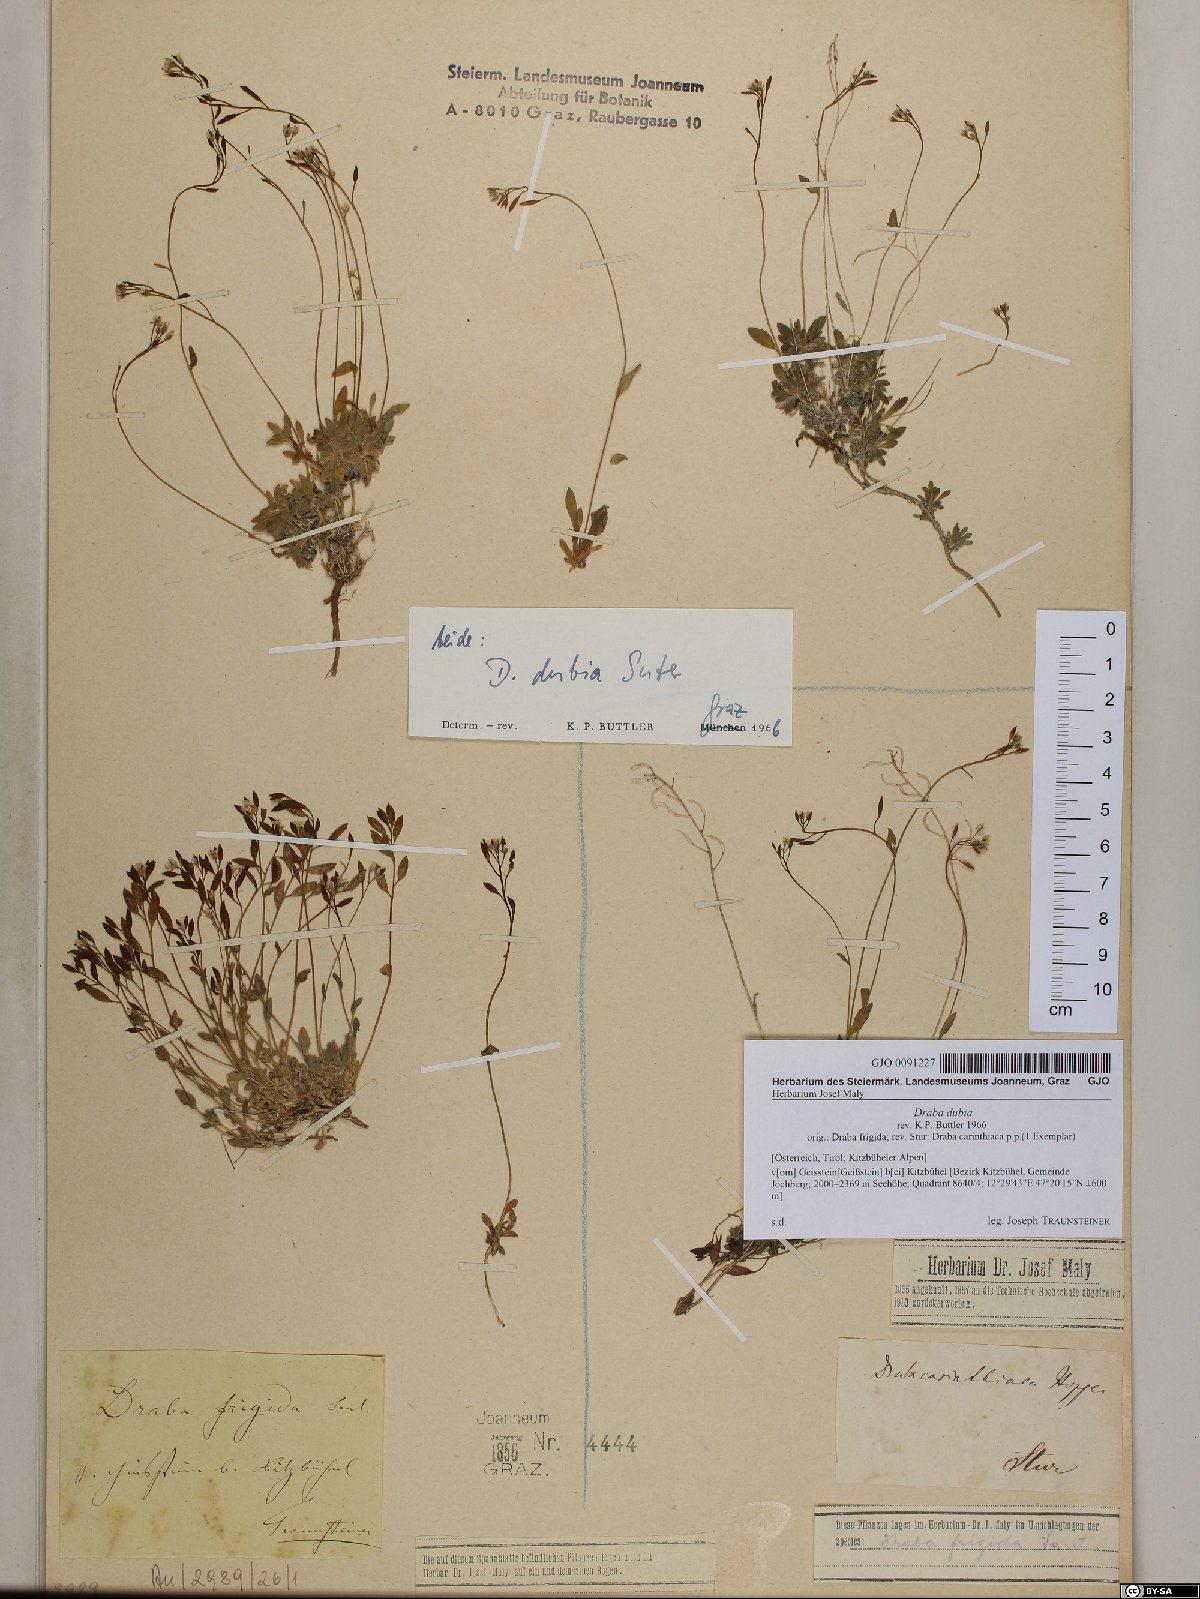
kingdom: Plantae
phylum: Tracheophyta
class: Magnoliopsida
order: Brassicales
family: Brassicaceae
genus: Draba
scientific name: Draba dubia
